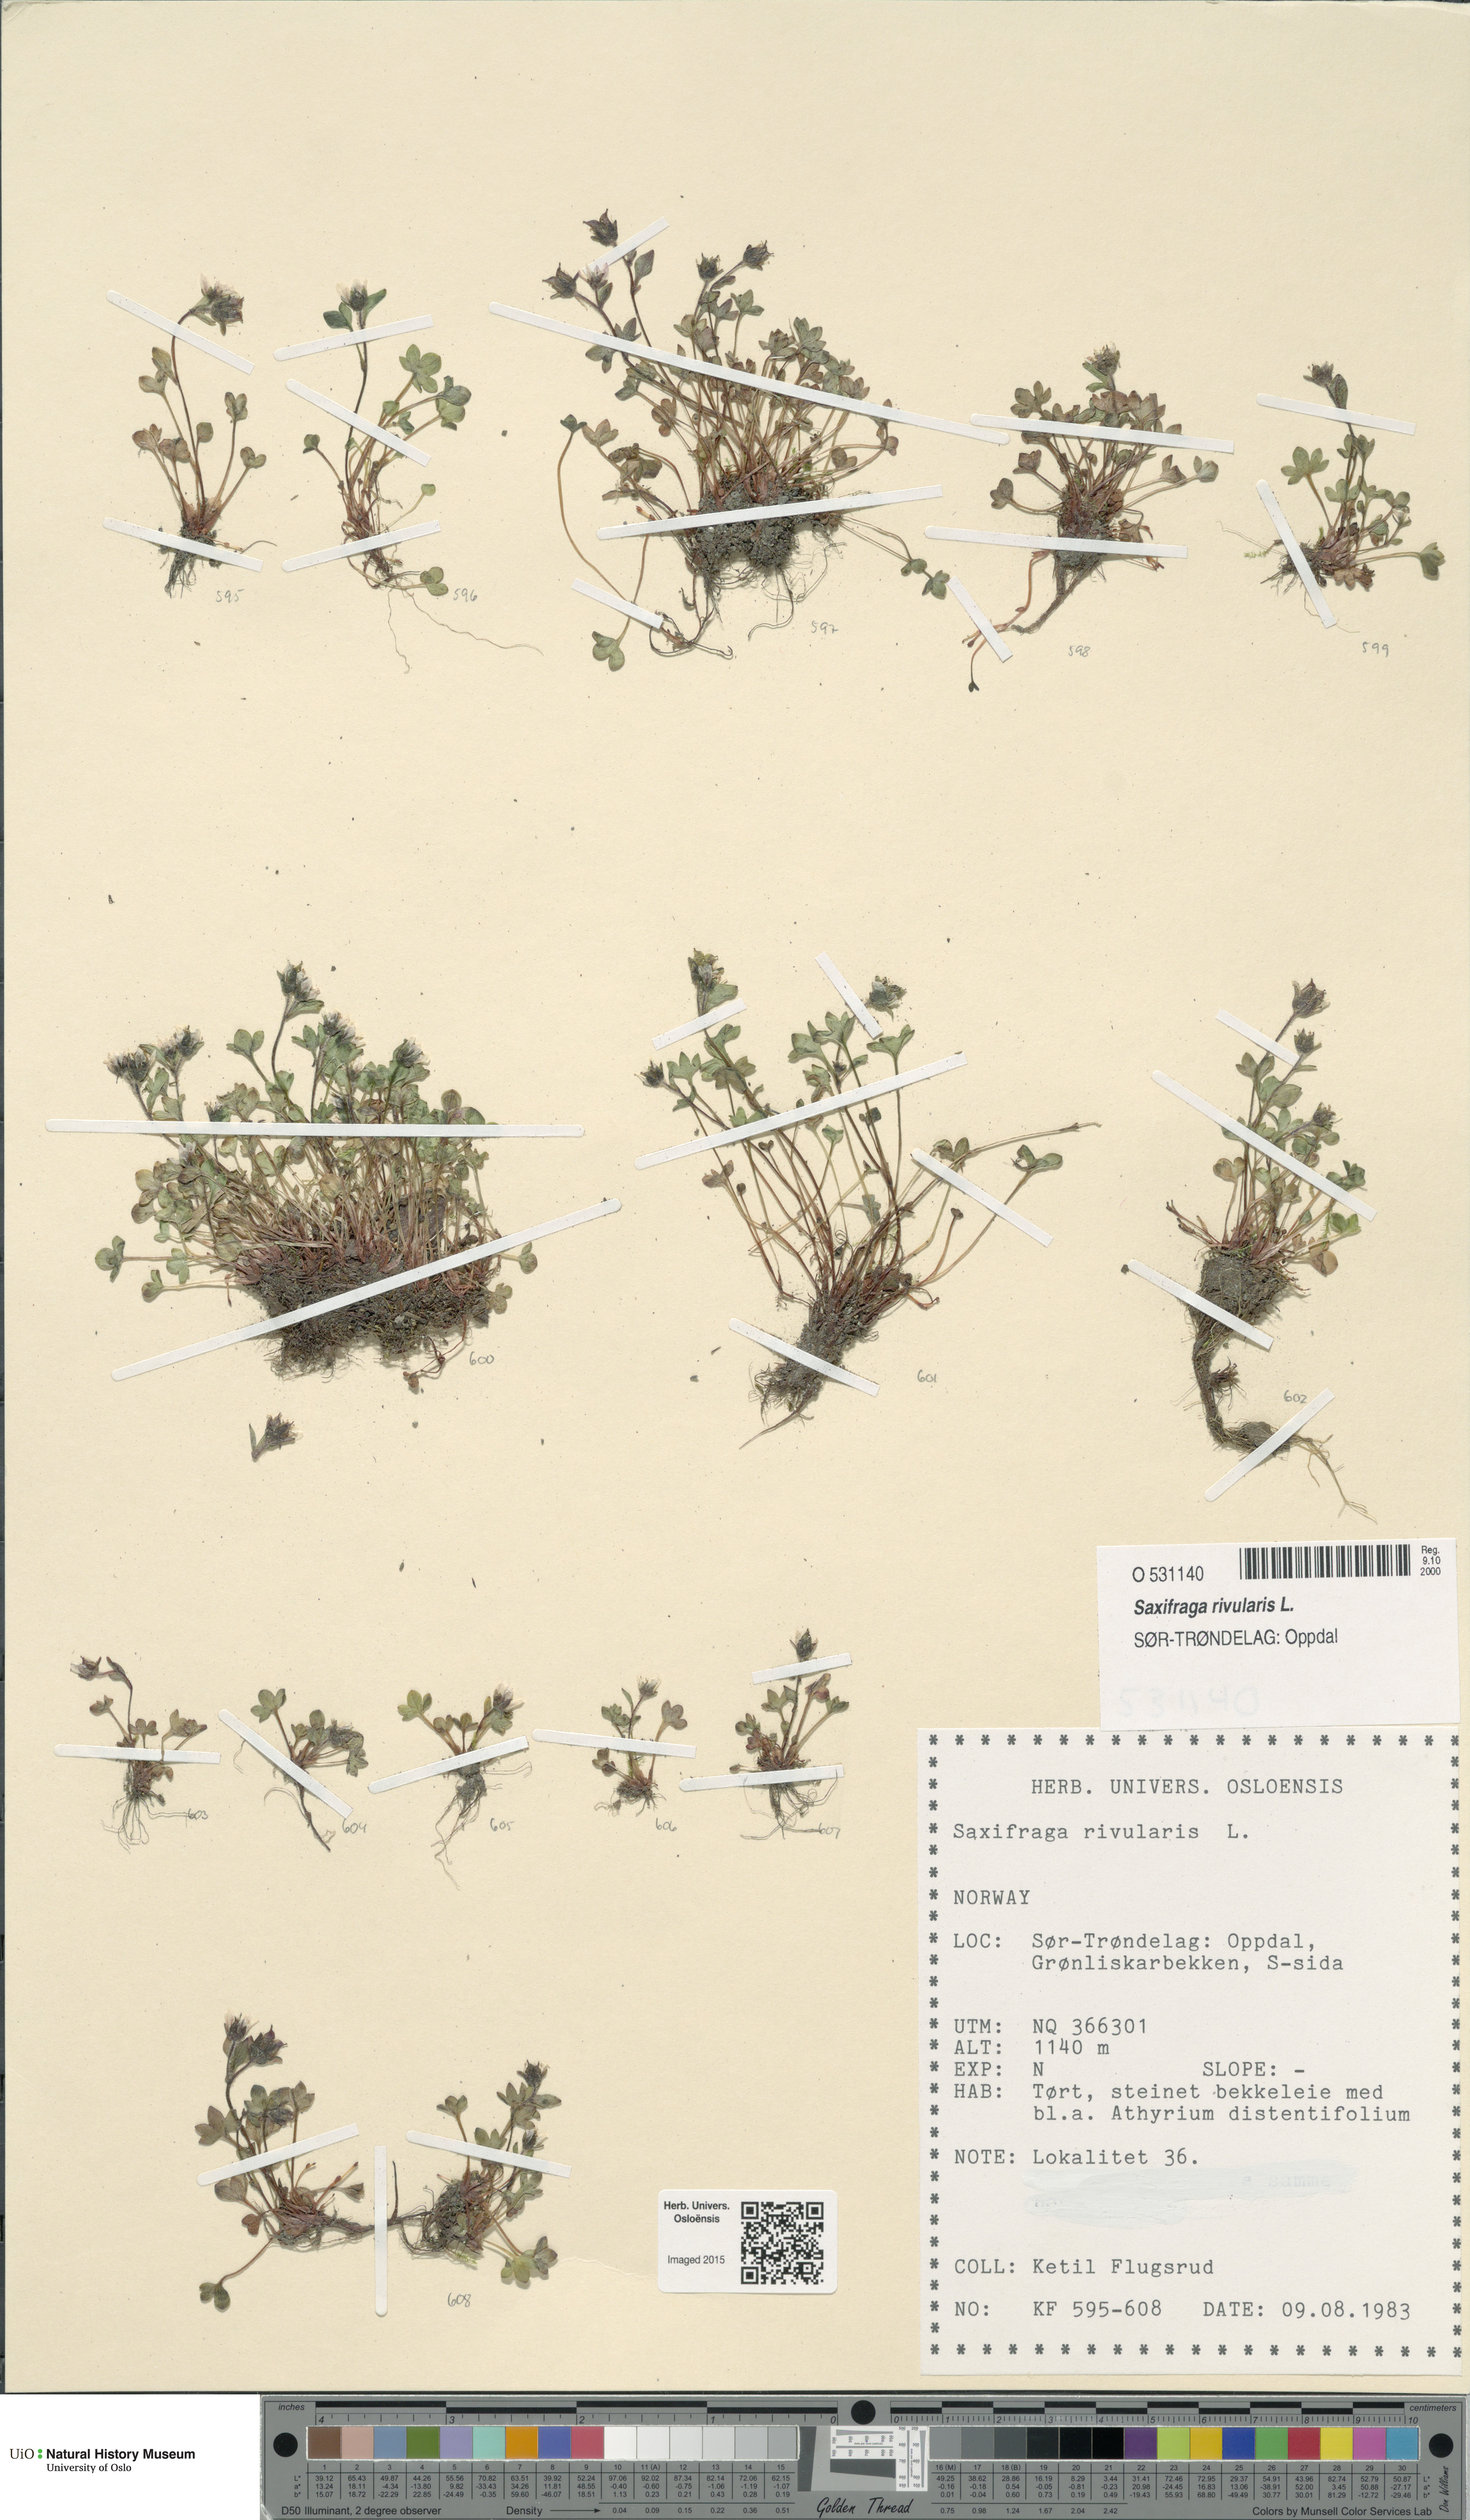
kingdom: Plantae
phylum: Tracheophyta
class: Magnoliopsida
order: Saxifragales
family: Saxifragaceae
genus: Saxifraga
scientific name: Saxifraga rivularis
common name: Highland saxifrage
